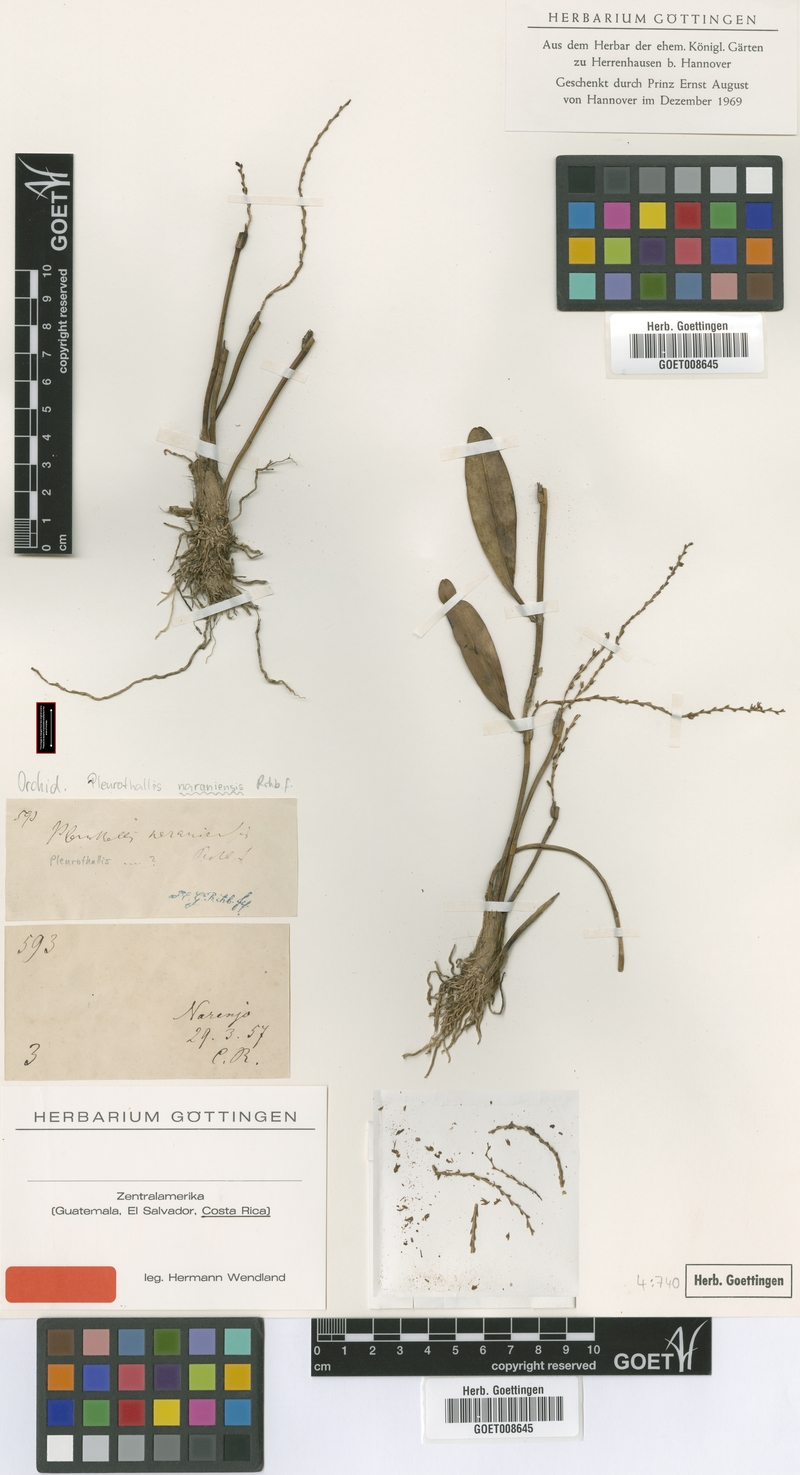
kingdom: Plantae
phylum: Tracheophyta
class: Liliopsida
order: Asparagales
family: Orchidaceae
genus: Stelis
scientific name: Stelis pulchella
